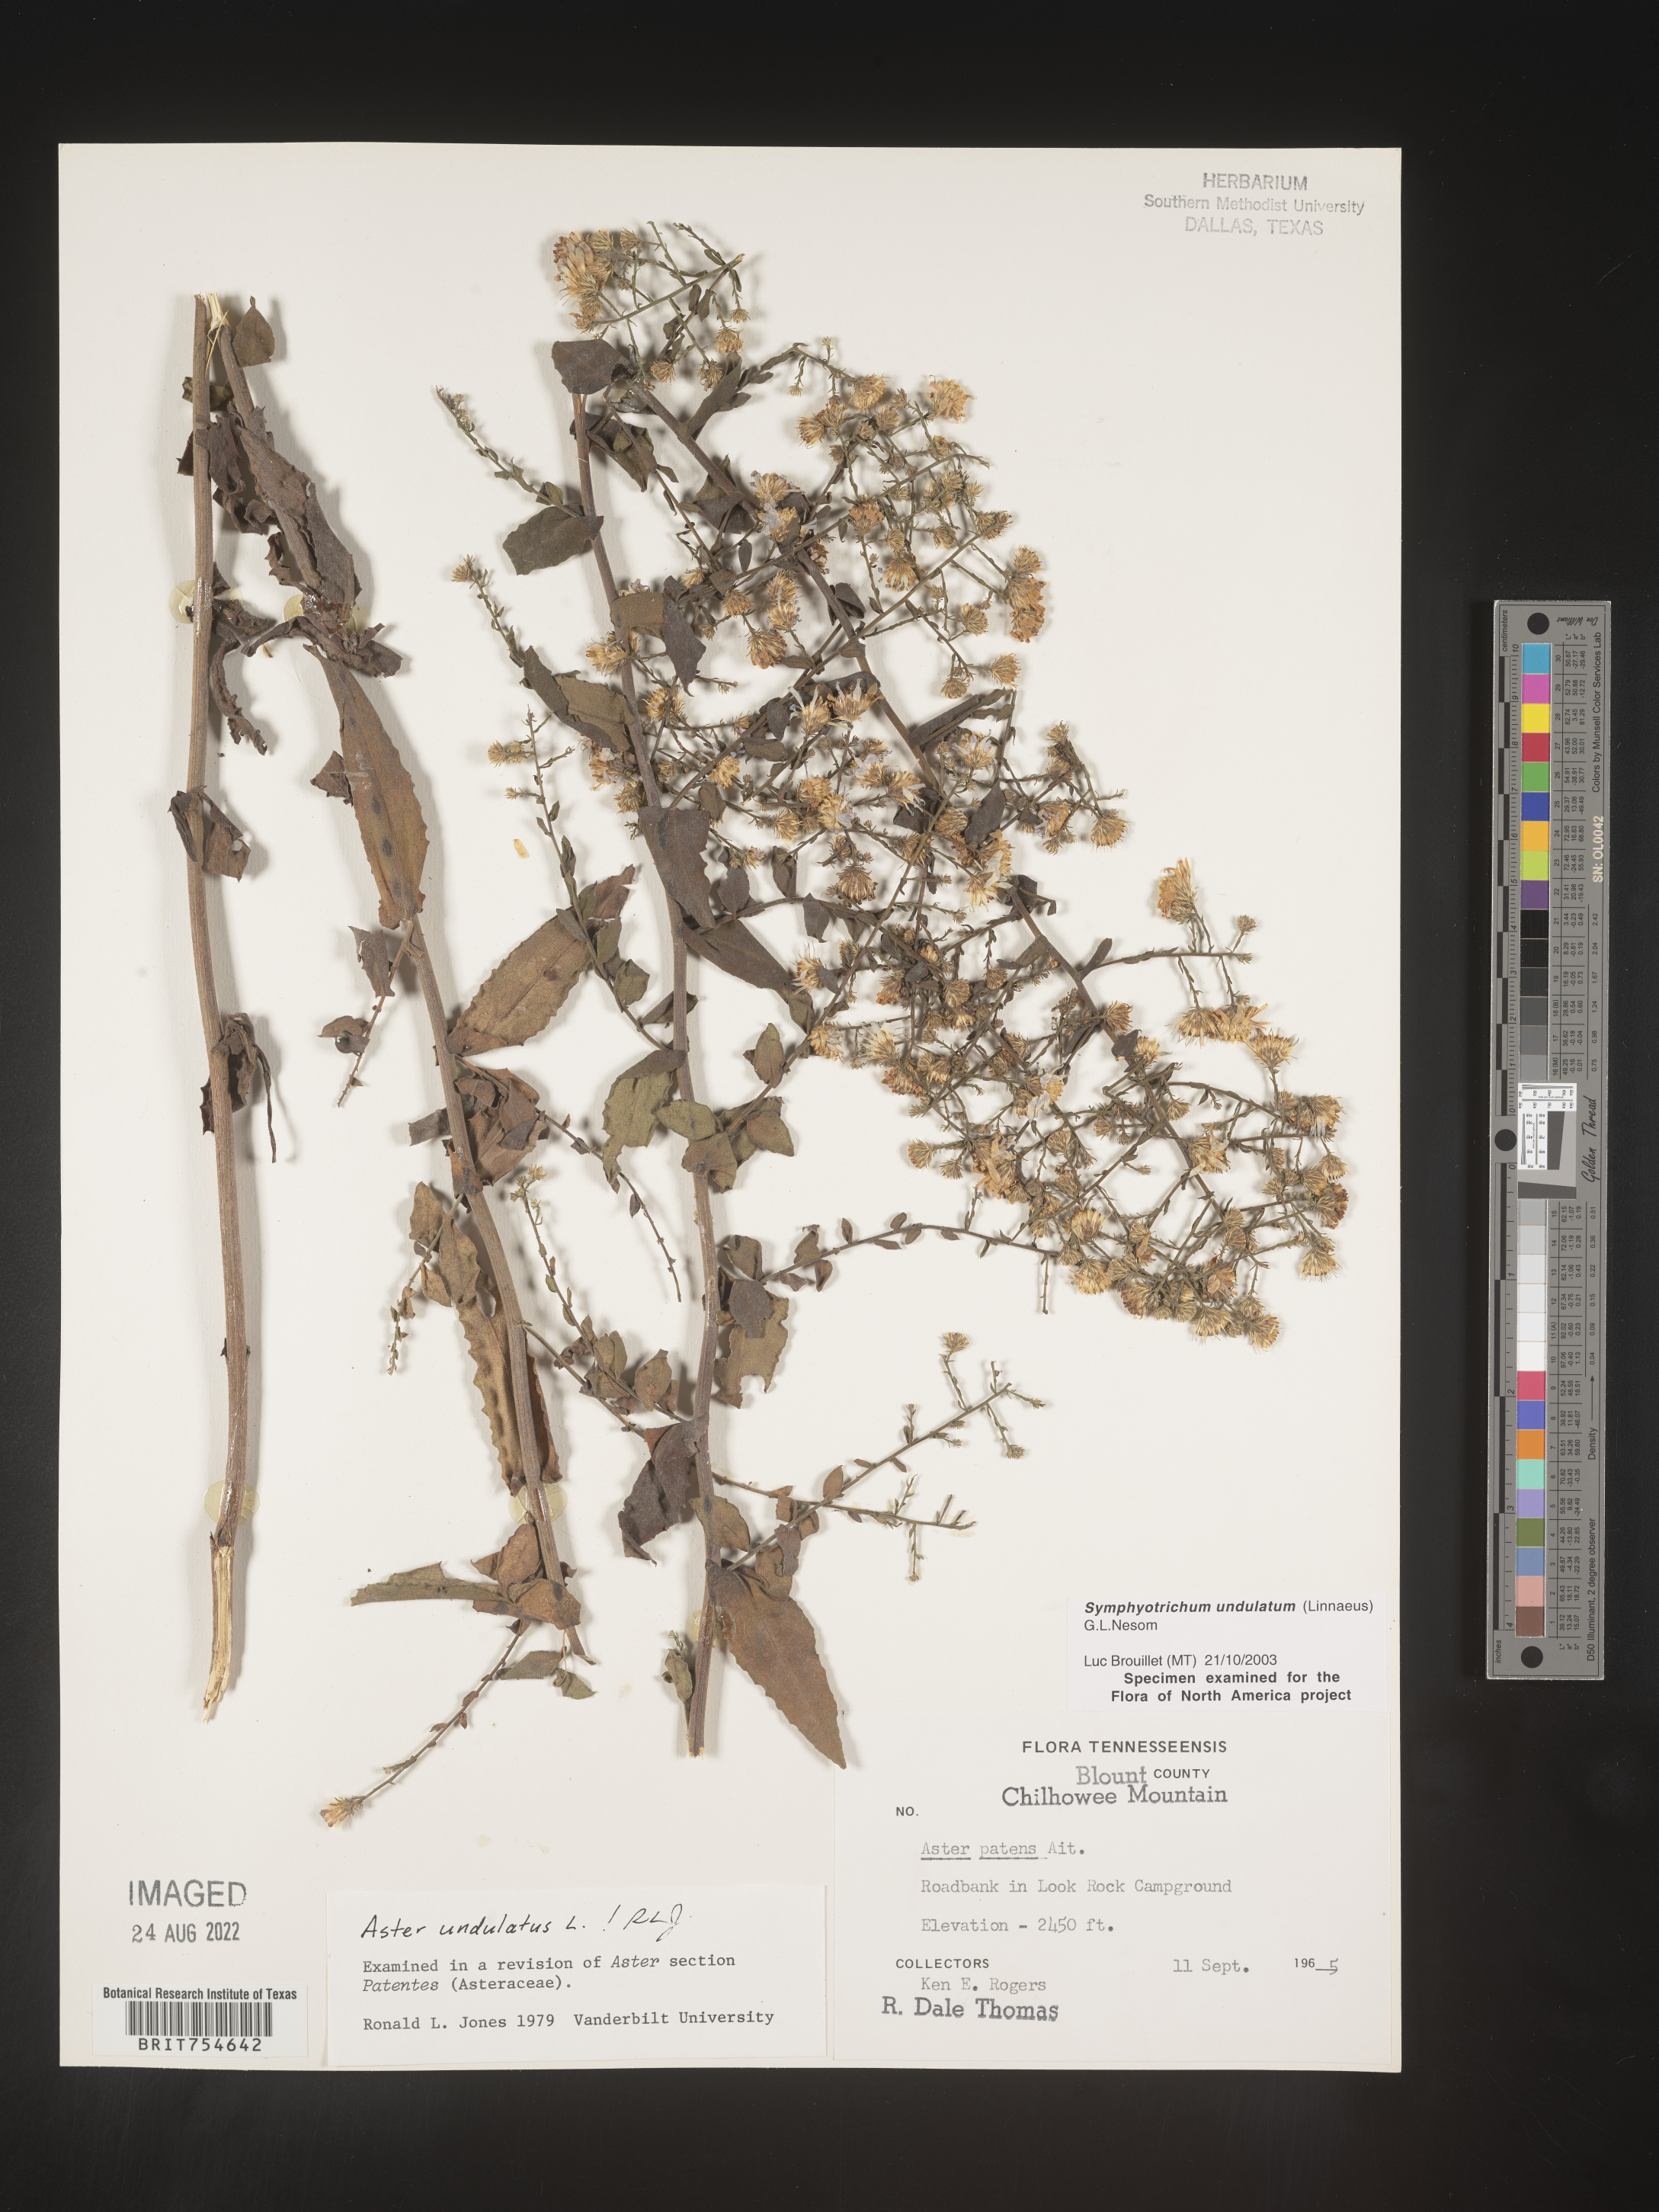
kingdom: Plantae
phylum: Tracheophyta
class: Magnoliopsida
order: Asterales
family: Asteraceae
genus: Symphyotrichum
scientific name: Symphyotrichum undulatum
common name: Clasping heart-leaf aster
